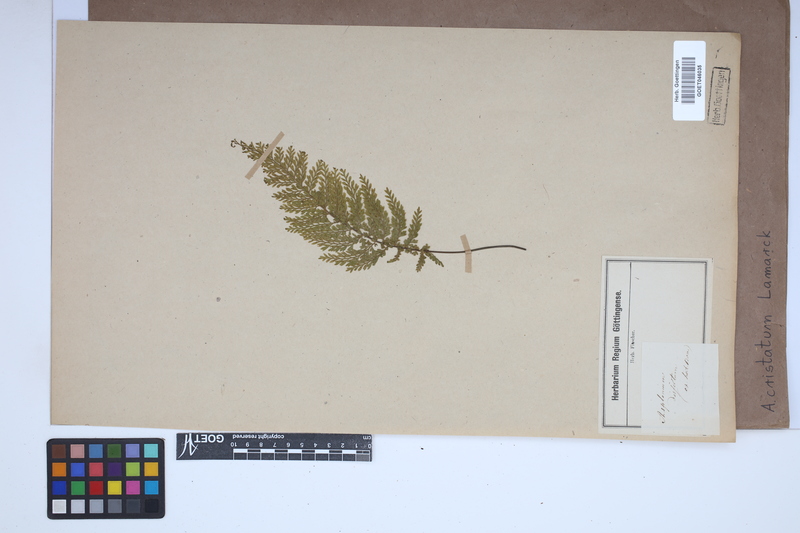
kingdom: Plantae
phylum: Tracheophyta
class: Polypodiopsida
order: Polypodiales
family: Aspleniaceae
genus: Asplenium
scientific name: Asplenium cristatum
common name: Parsley spleenwort
